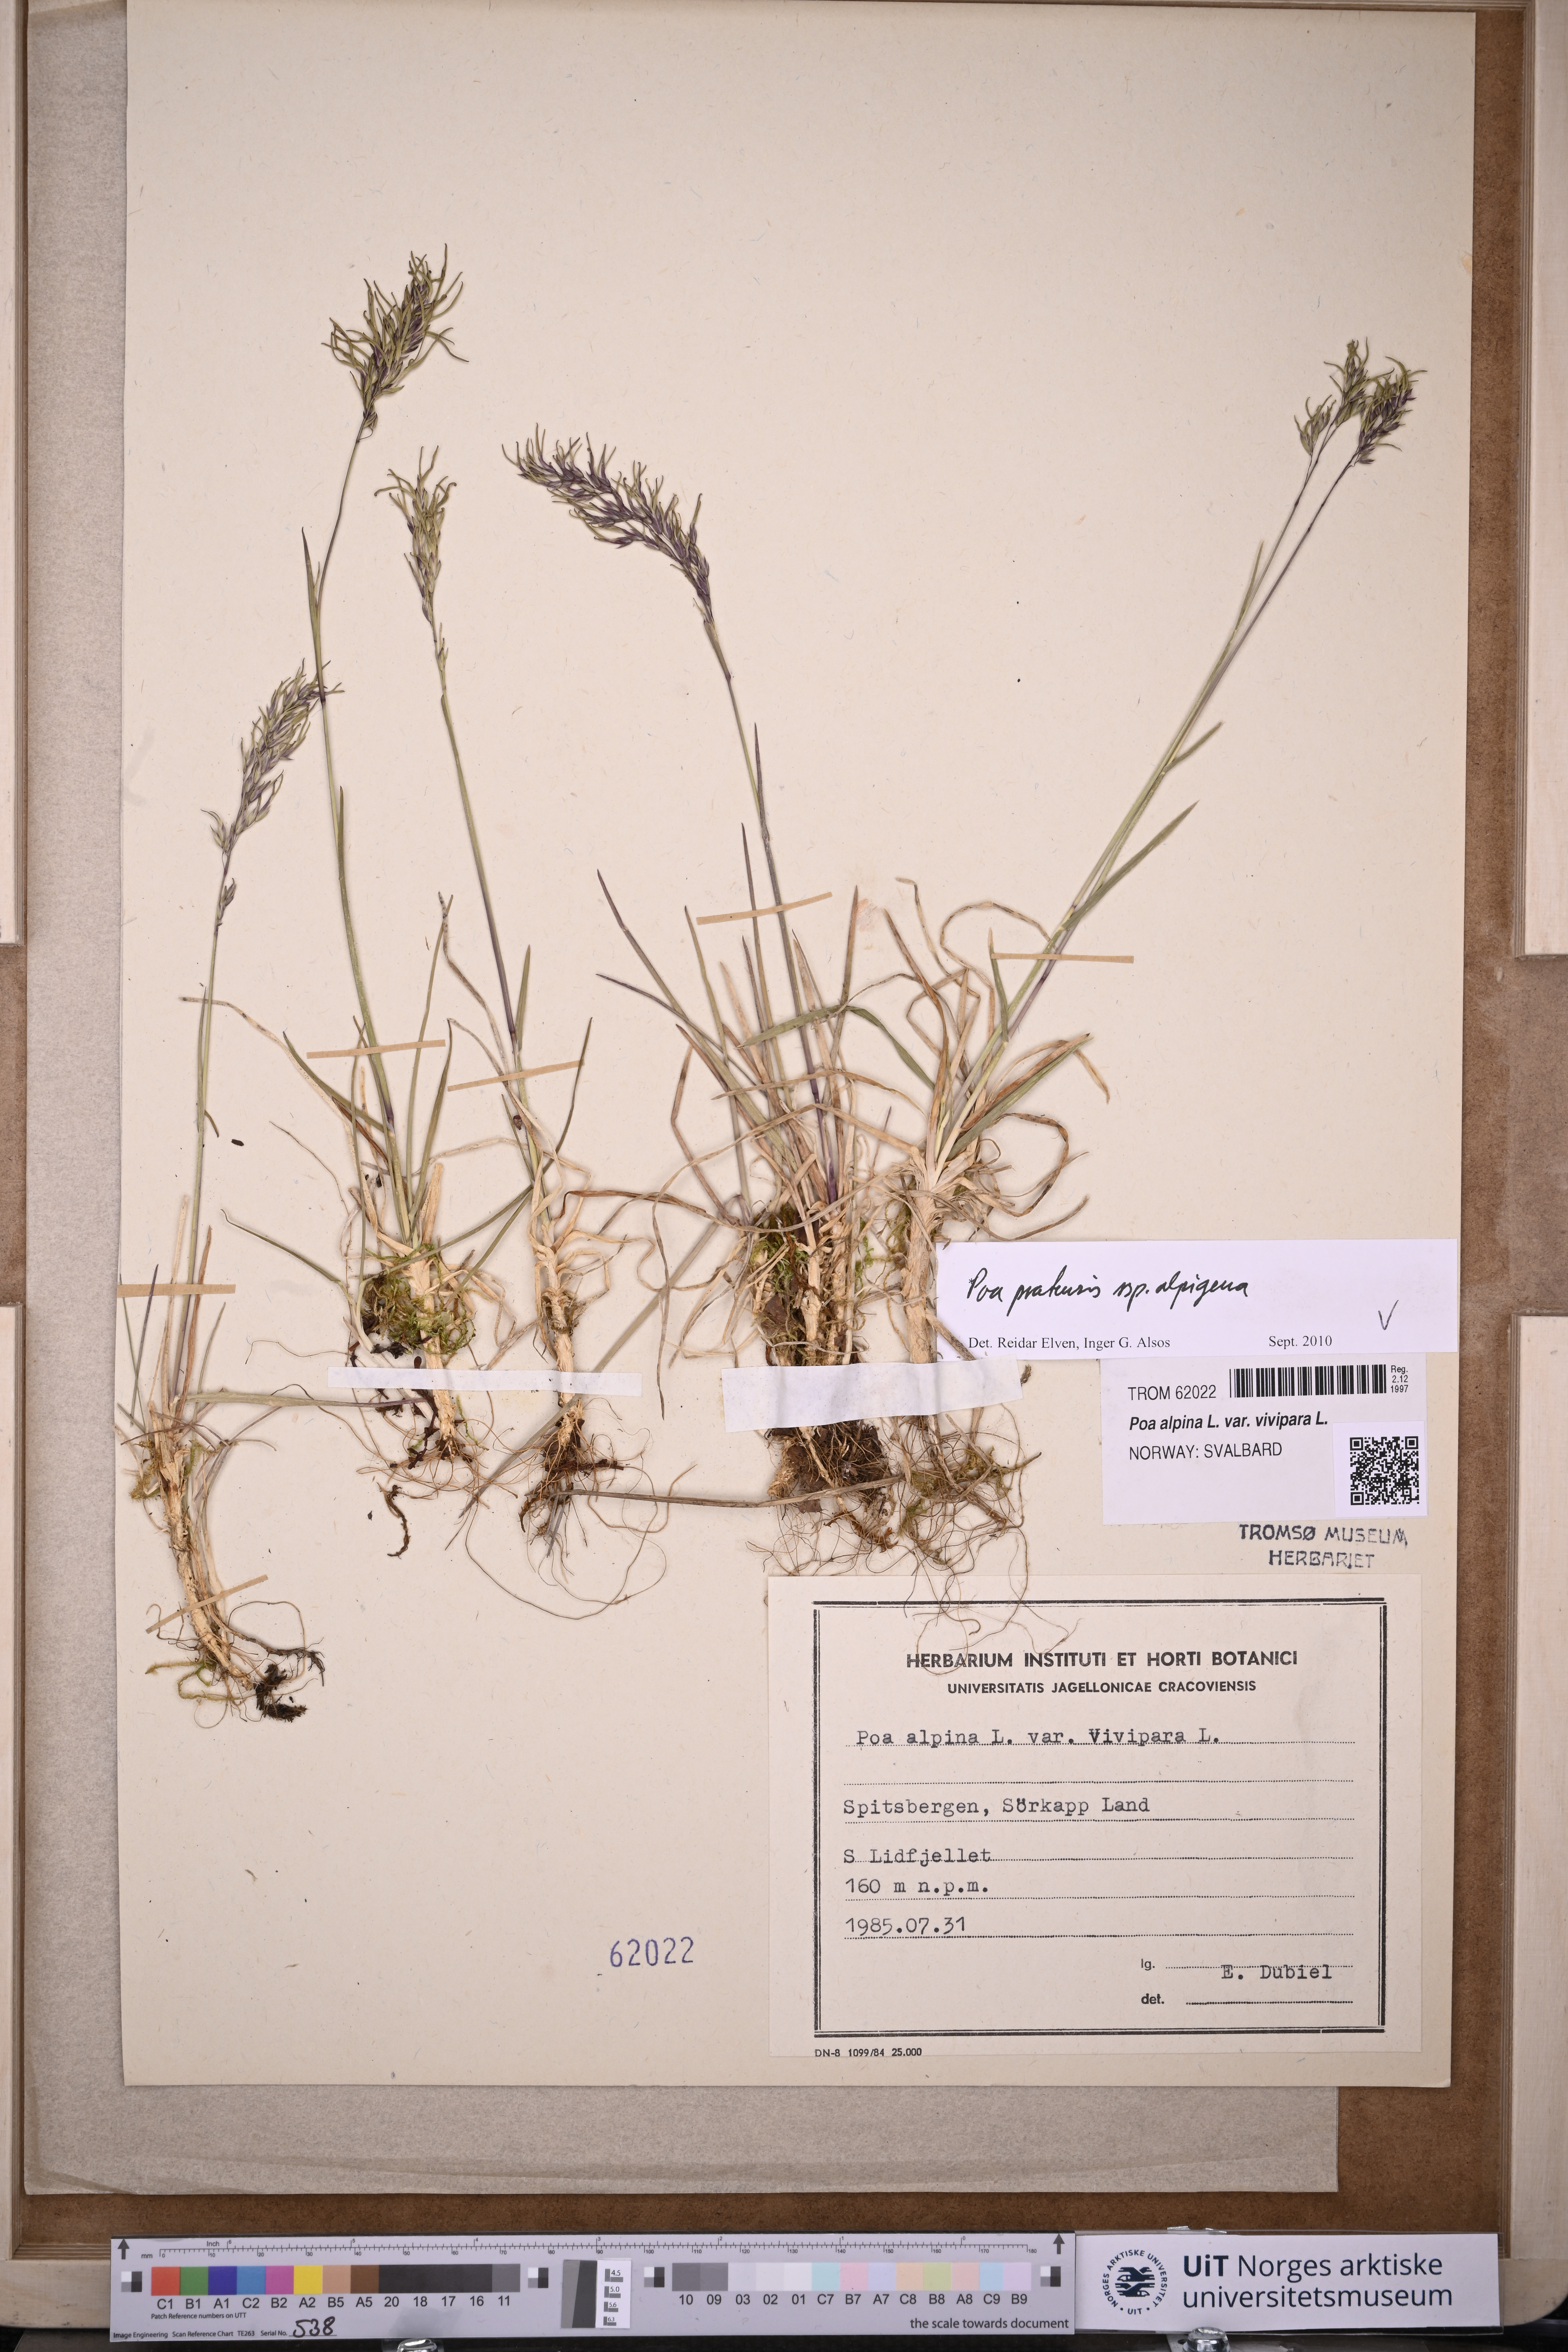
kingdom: Plantae
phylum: Tracheophyta
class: Liliopsida
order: Poales
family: Poaceae
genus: Poa
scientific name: Poa alpigena
